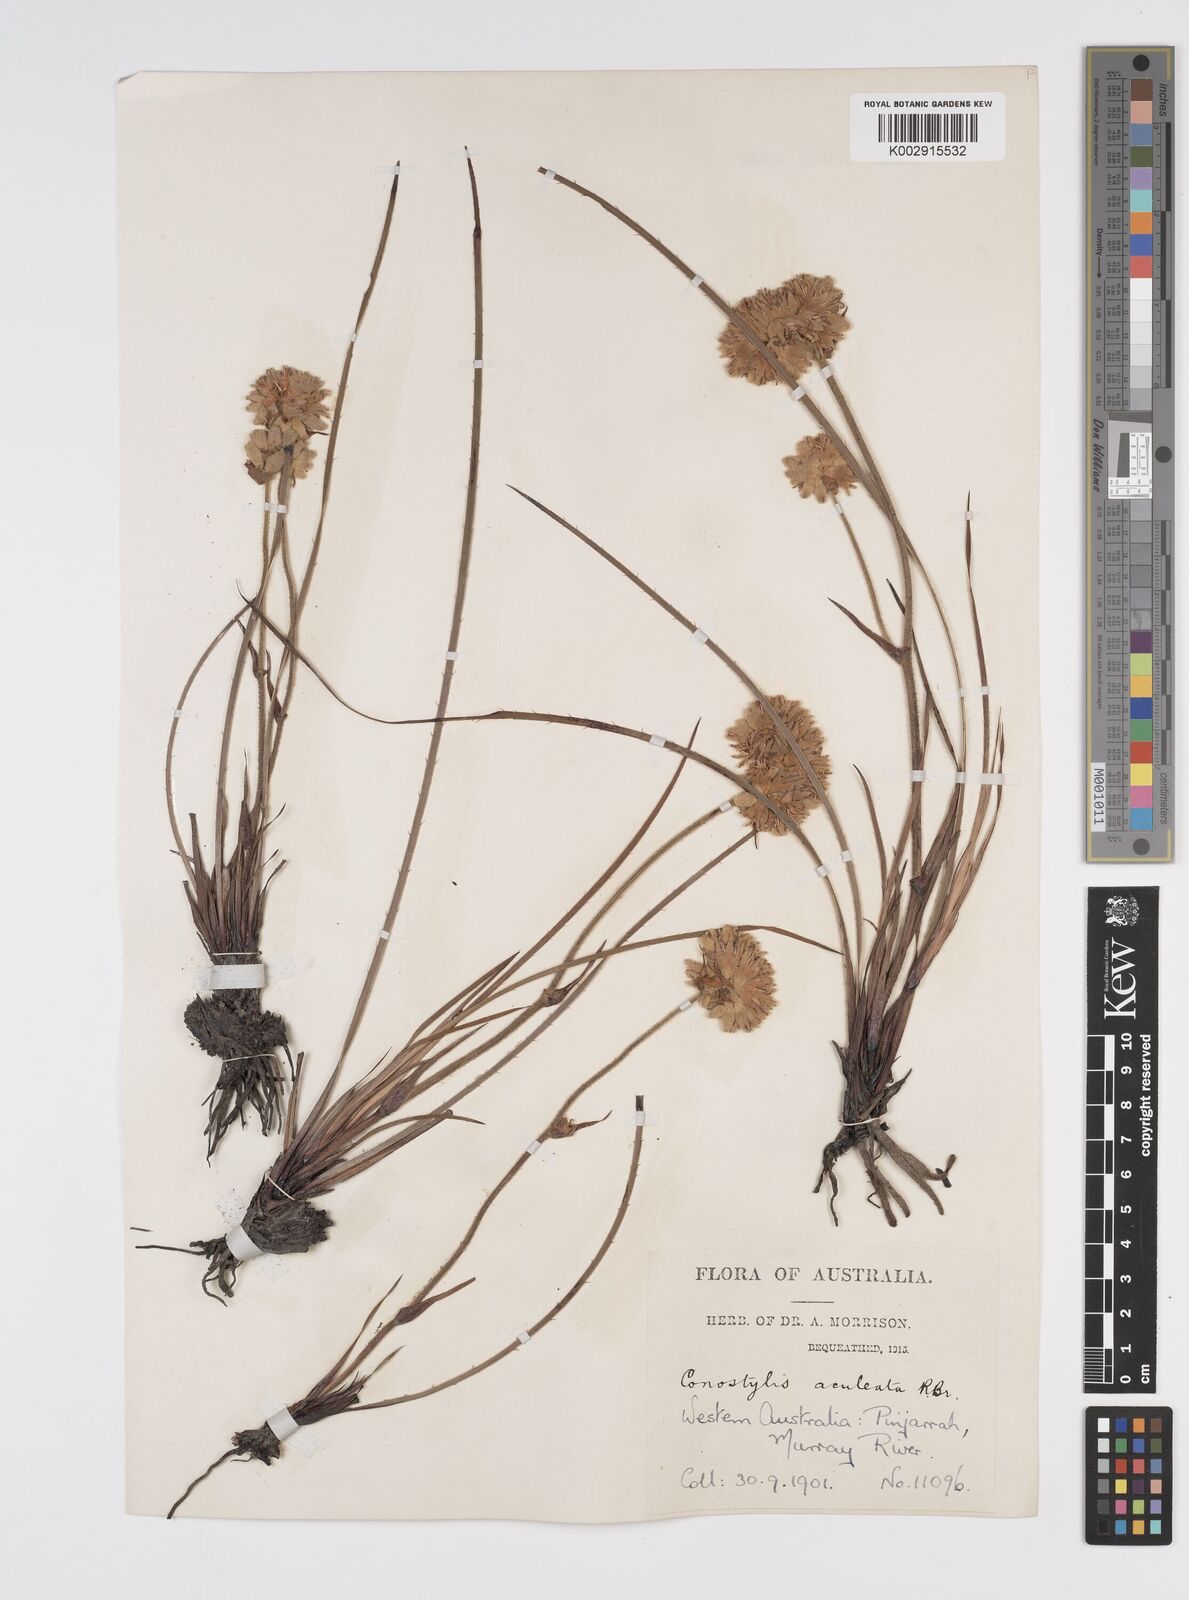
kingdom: Plantae
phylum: Tracheophyta
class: Liliopsida
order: Commelinales
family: Haemodoraceae
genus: Conostylis
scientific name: Conostylis aculeata
